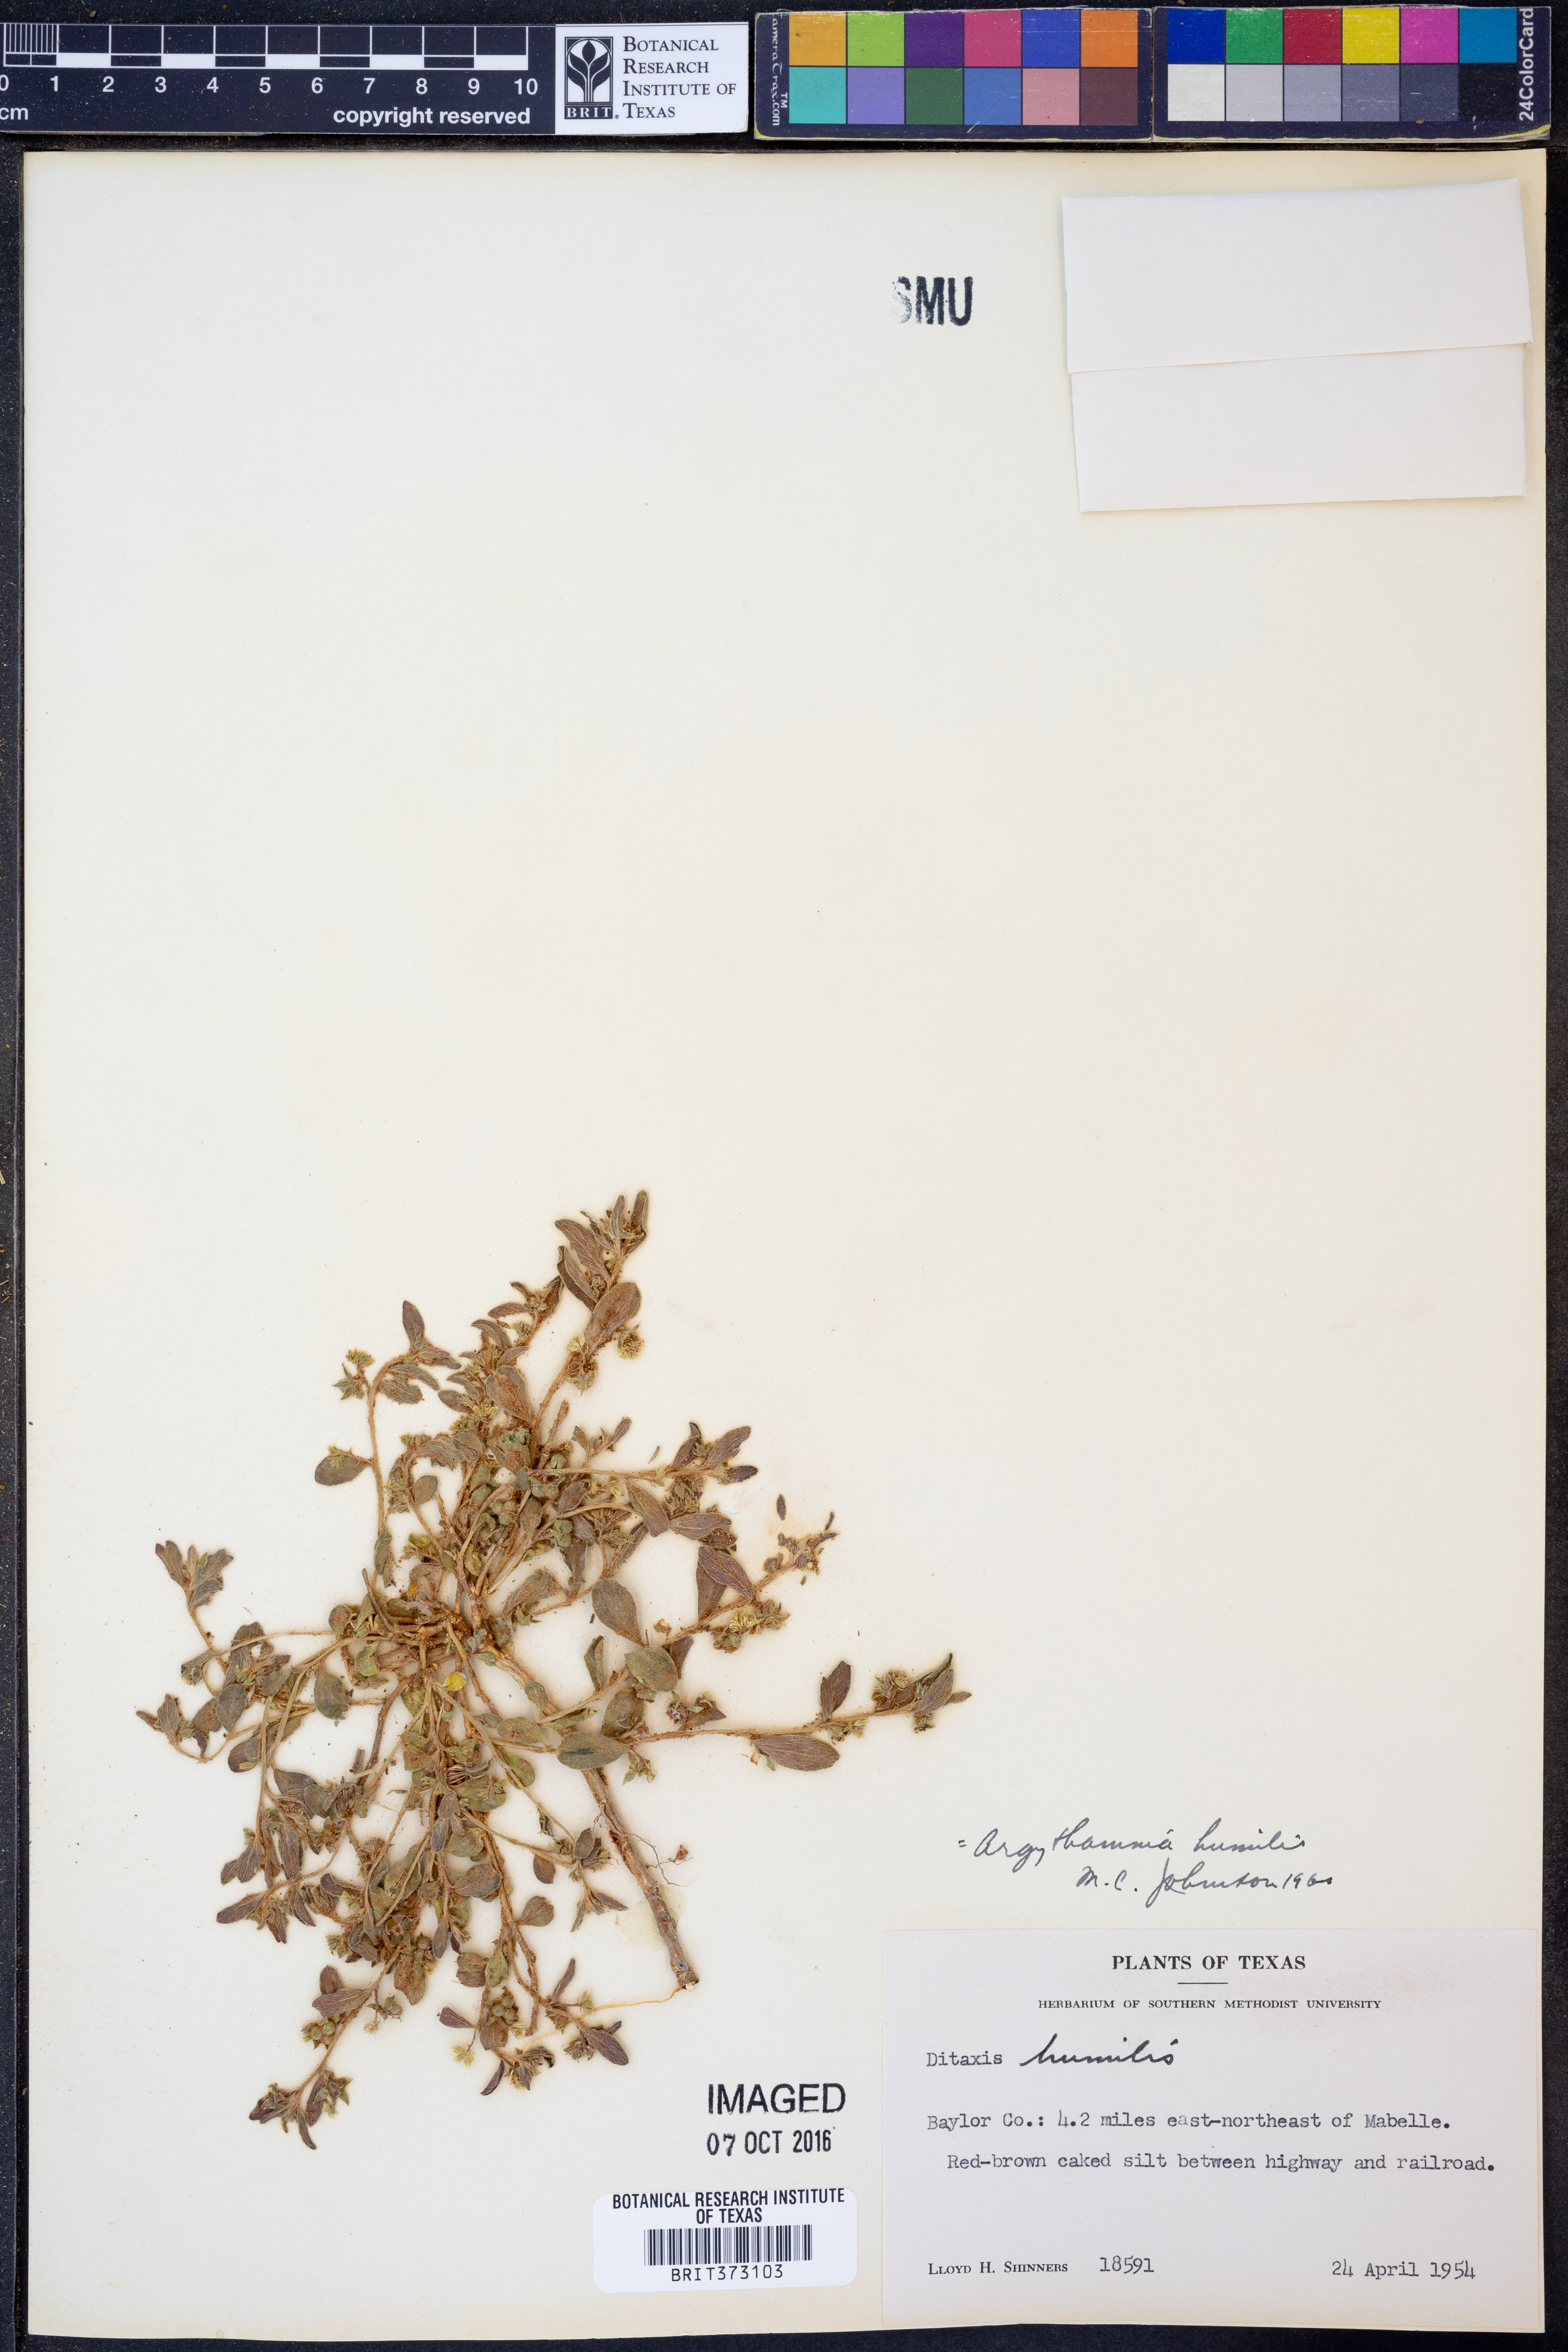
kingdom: Plantae
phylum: Tracheophyta
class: Magnoliopsida
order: Malpighiales
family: Euphorbiaceae
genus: Ditaxis
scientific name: Ditaxis humilis
